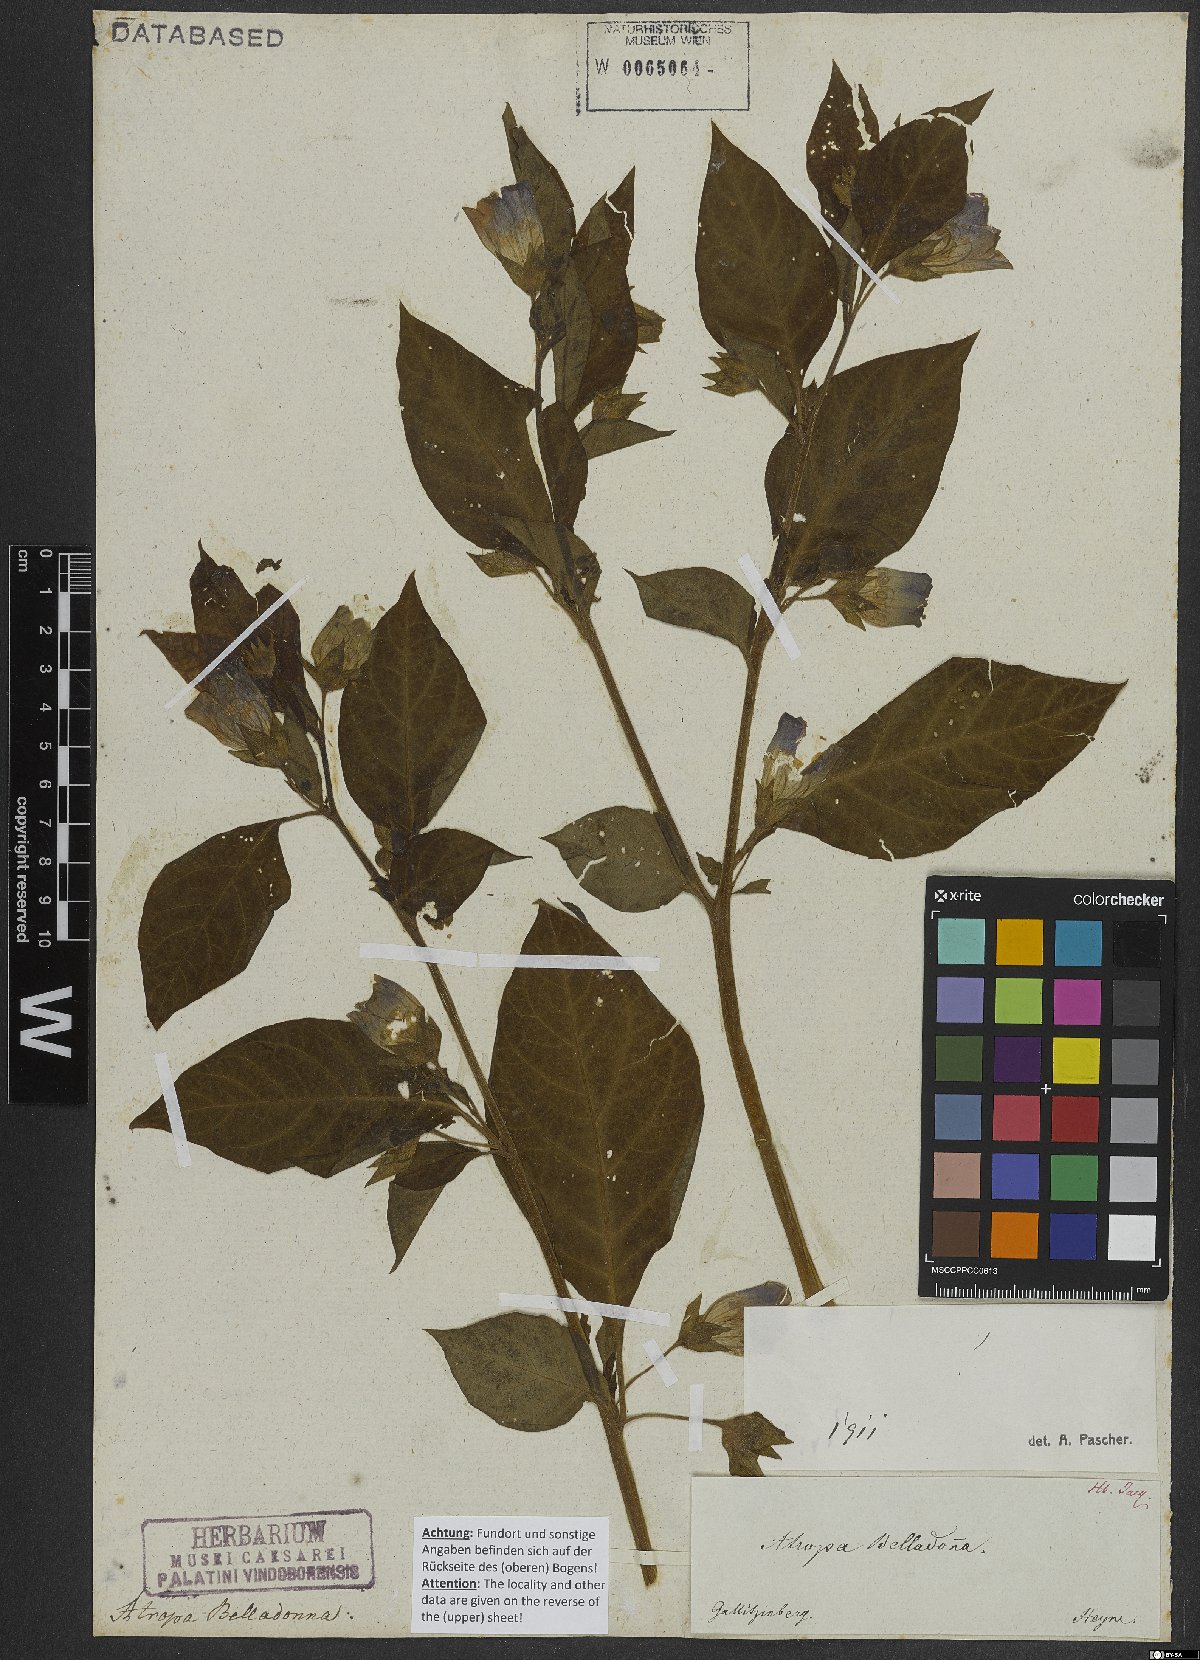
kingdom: Plantae
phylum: Tracheophyta
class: Magnoliopsida
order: Solanales
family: Solanaceae
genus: Atropa
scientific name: Atropa belladonna
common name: Deadly nightshade
